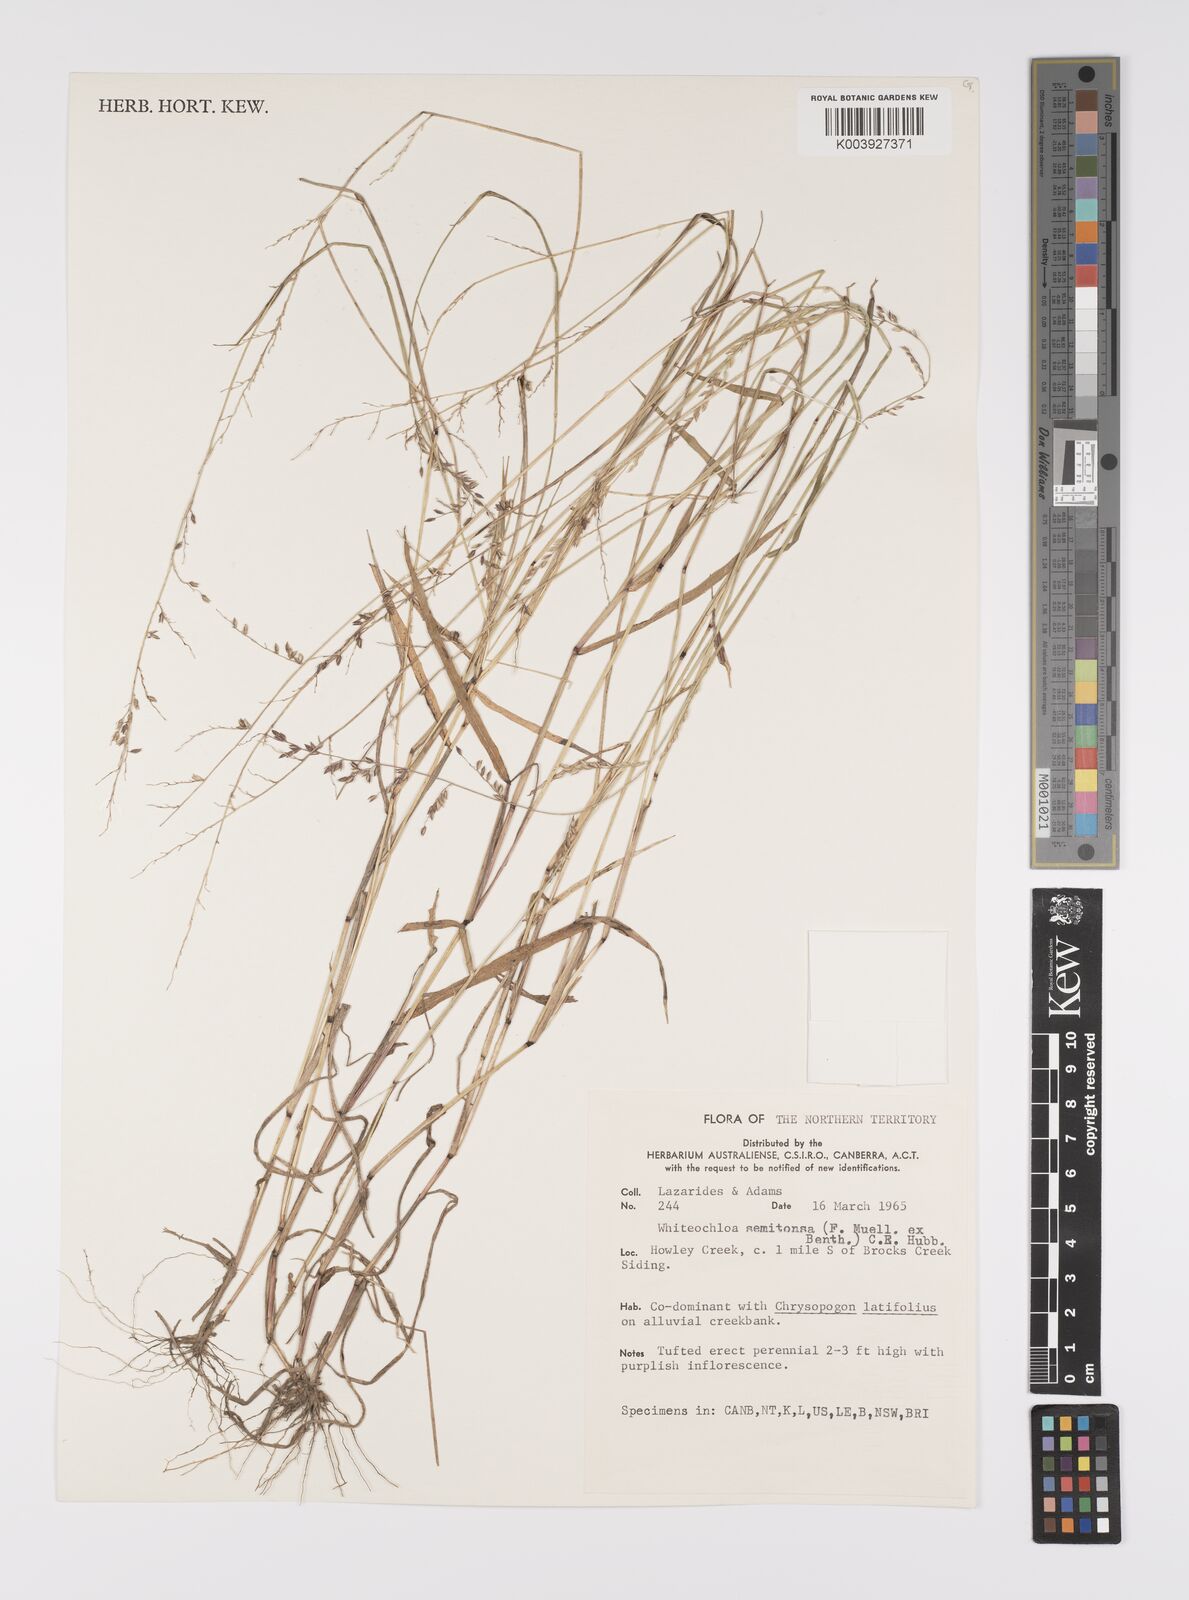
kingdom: Plantae
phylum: Tracheophyta
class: Liliopsida
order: Poales
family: Poaceae
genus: Whiteochloa
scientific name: Whiteochloa semitonsa
